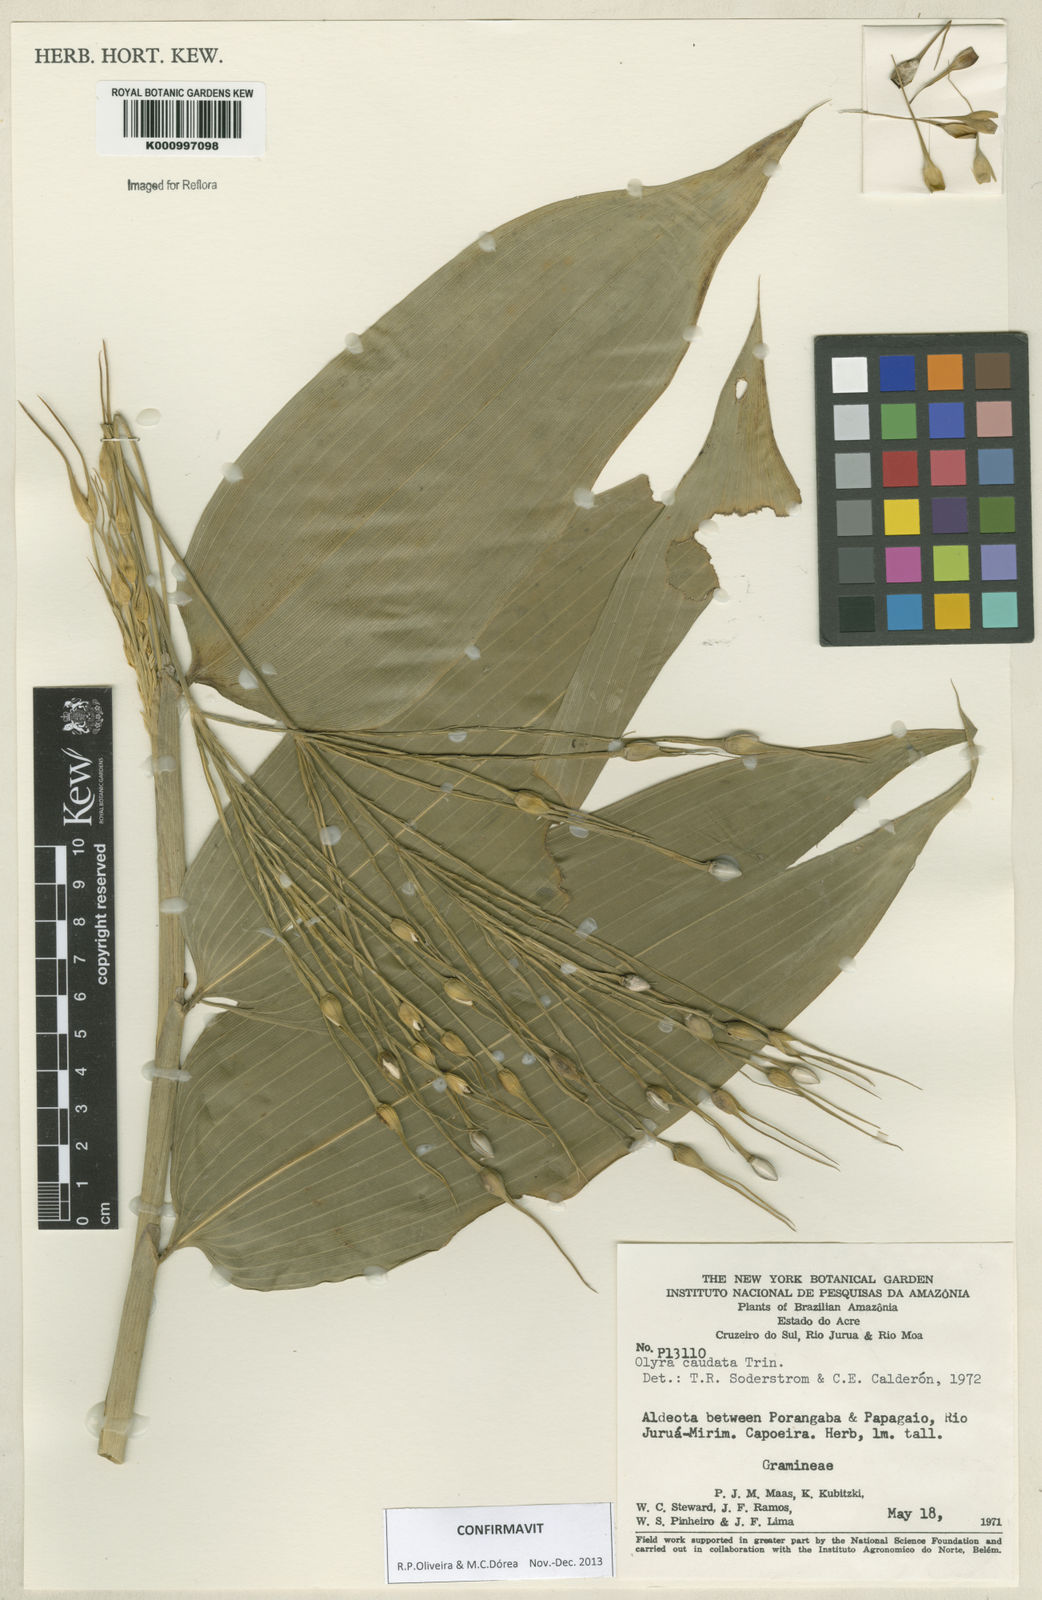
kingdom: Plantae
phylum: Tracheophyta
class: Liliopsida
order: Poales
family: Poaceae
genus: Olyra
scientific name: Olyra caudata
